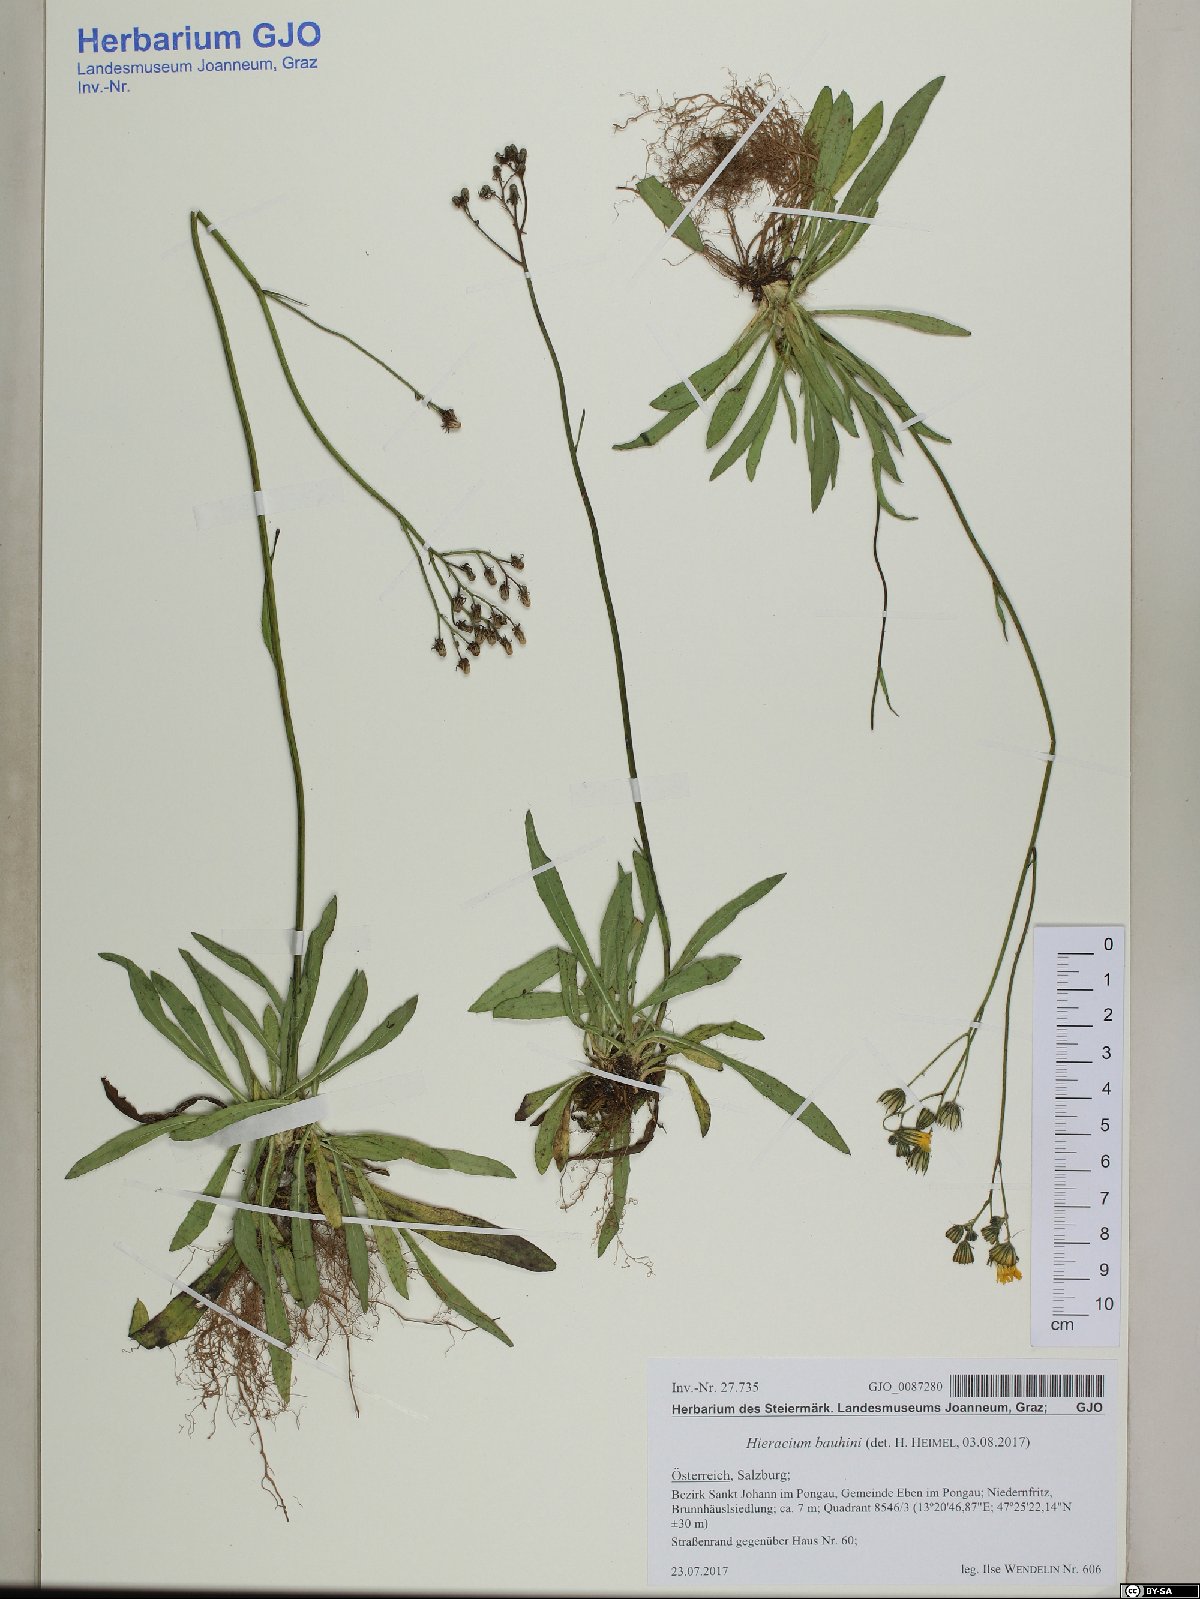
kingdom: Plantae
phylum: Tracheophyta
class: Magnoliopsida
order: Asterales
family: Asteraceae
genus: Pilosella
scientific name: Pilosella bauhini
